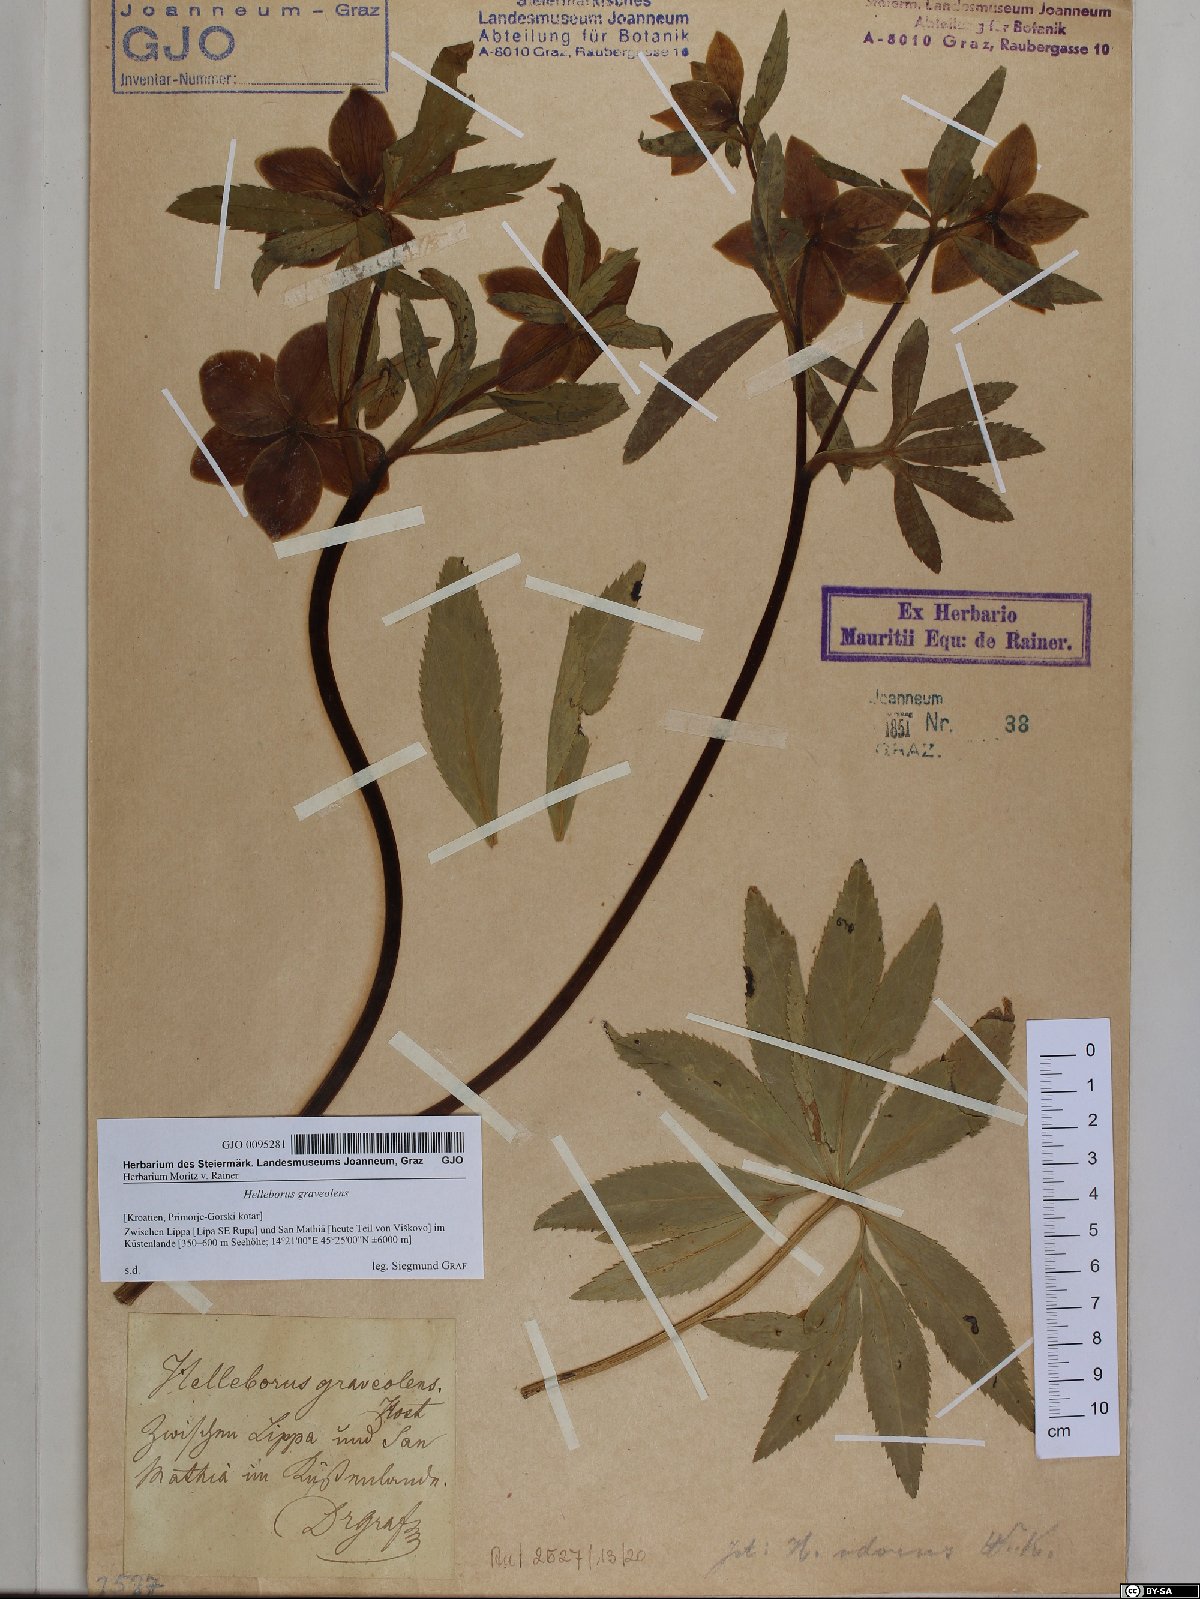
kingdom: Plantae
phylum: Tracheophyta
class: Magnoliopsida
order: Ranunculales
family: Ranunculaceae
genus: Helleborus
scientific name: Helleborus odorus
